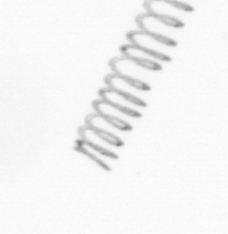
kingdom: Chromista
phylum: Ochrophyta
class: Bacillariophyceae
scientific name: Bacillariophyceae
